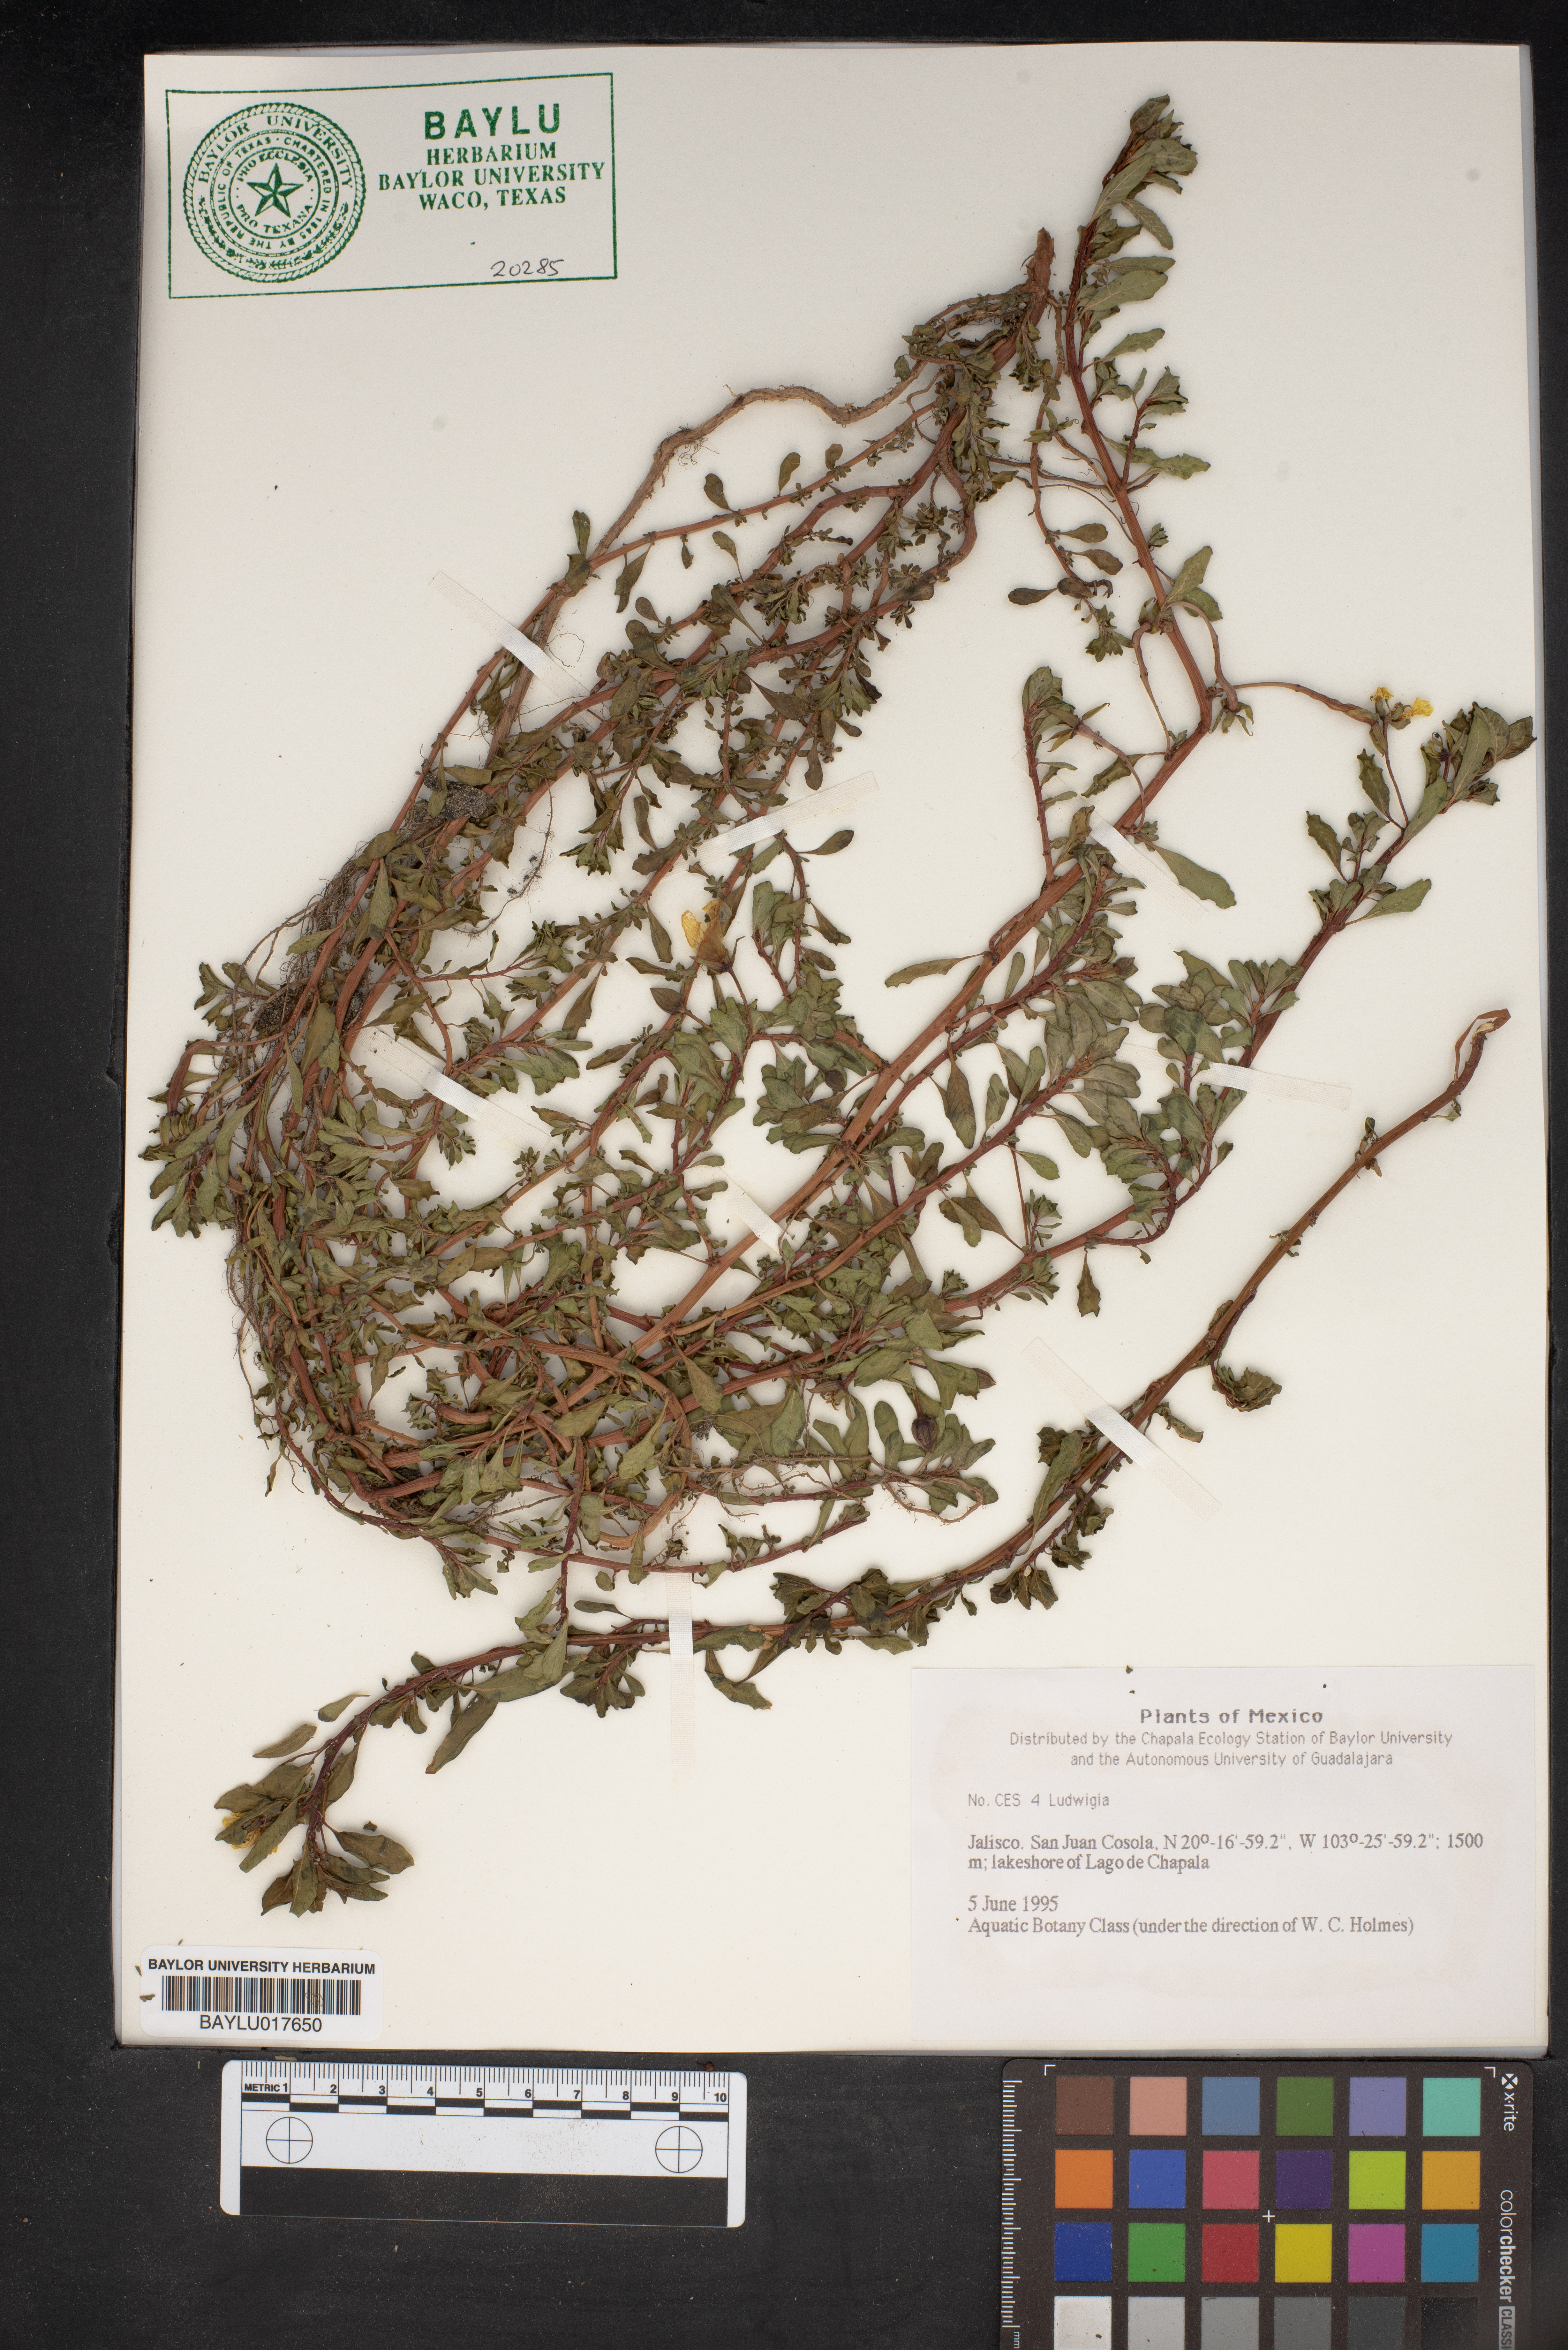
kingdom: Plantae
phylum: Tracheophyta
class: Magnoliopsida
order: Myrtales
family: Onagraceae
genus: Ludwigia
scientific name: Ludwigia
